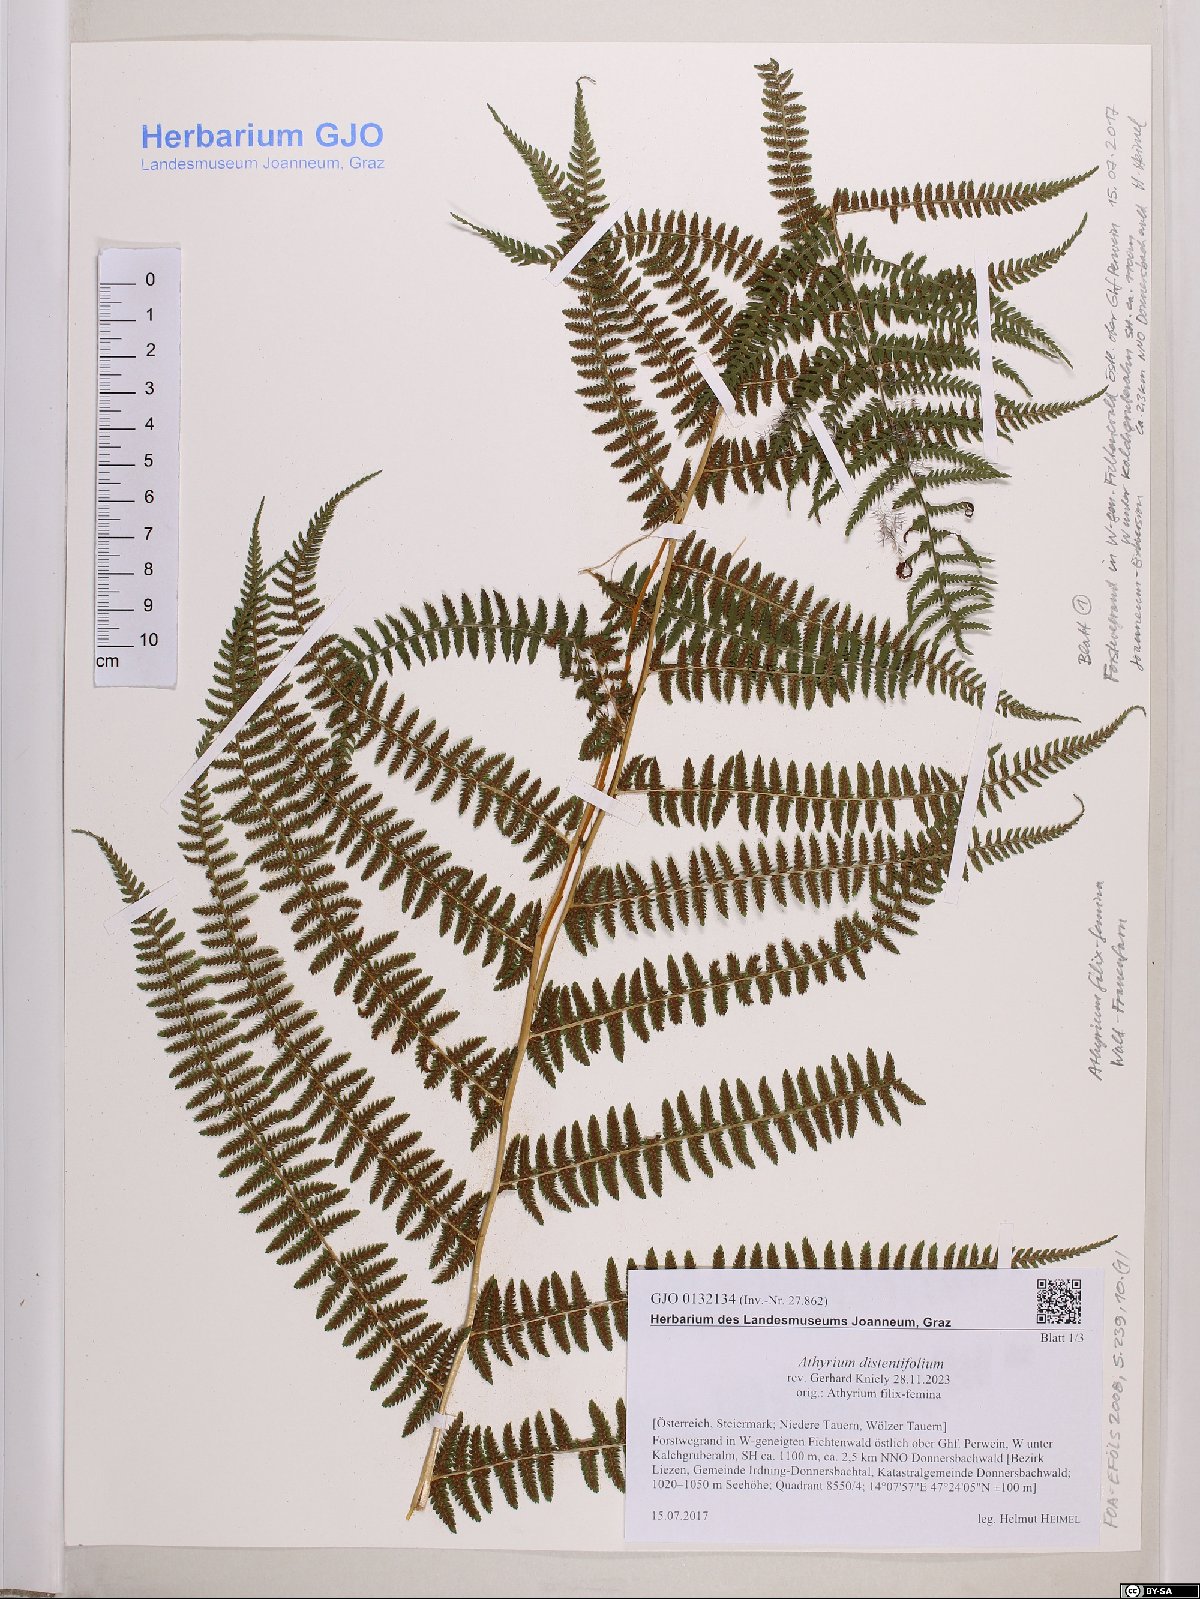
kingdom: Plantae
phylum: Tracheophyta
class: Polypodiopsida
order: Polypodiales
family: Athyriaceae
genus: Pseudathyrium
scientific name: Pseudathyrium alpestre
